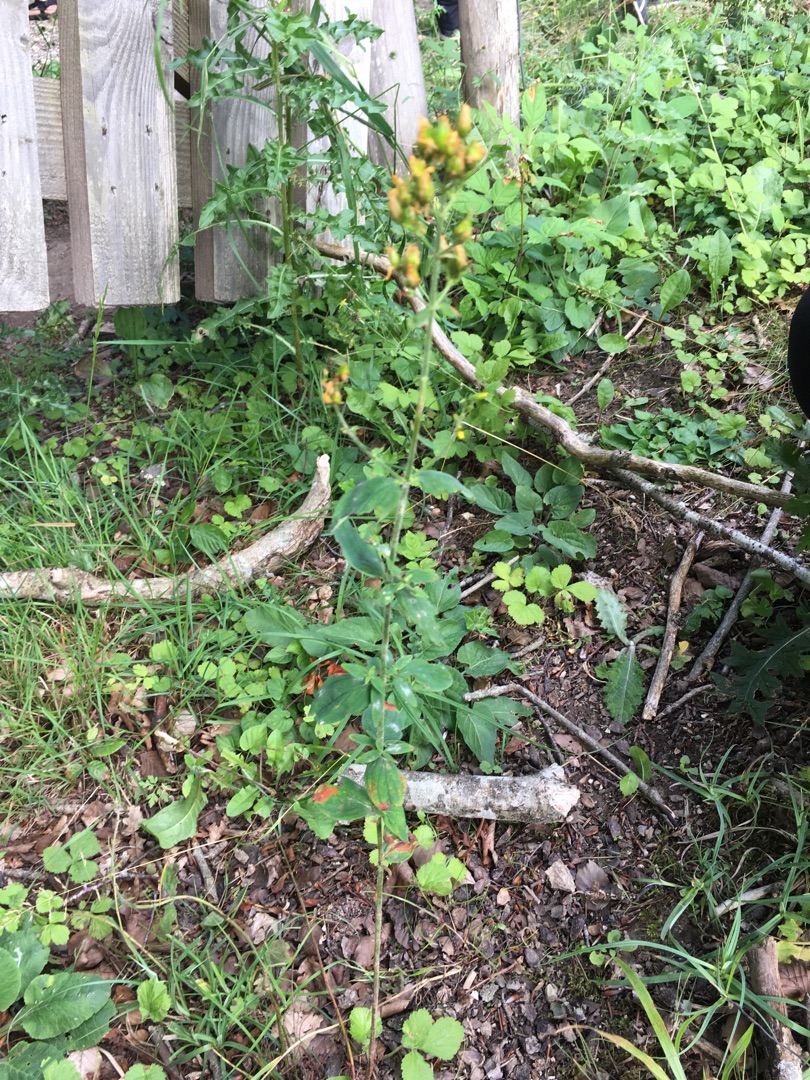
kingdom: Plantae
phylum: Tracheophyta
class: Magnoliopsida
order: Malpighiales
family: Hypericaceae
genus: Hypericum
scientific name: Hypericum hirsutum
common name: Lådden perikon
